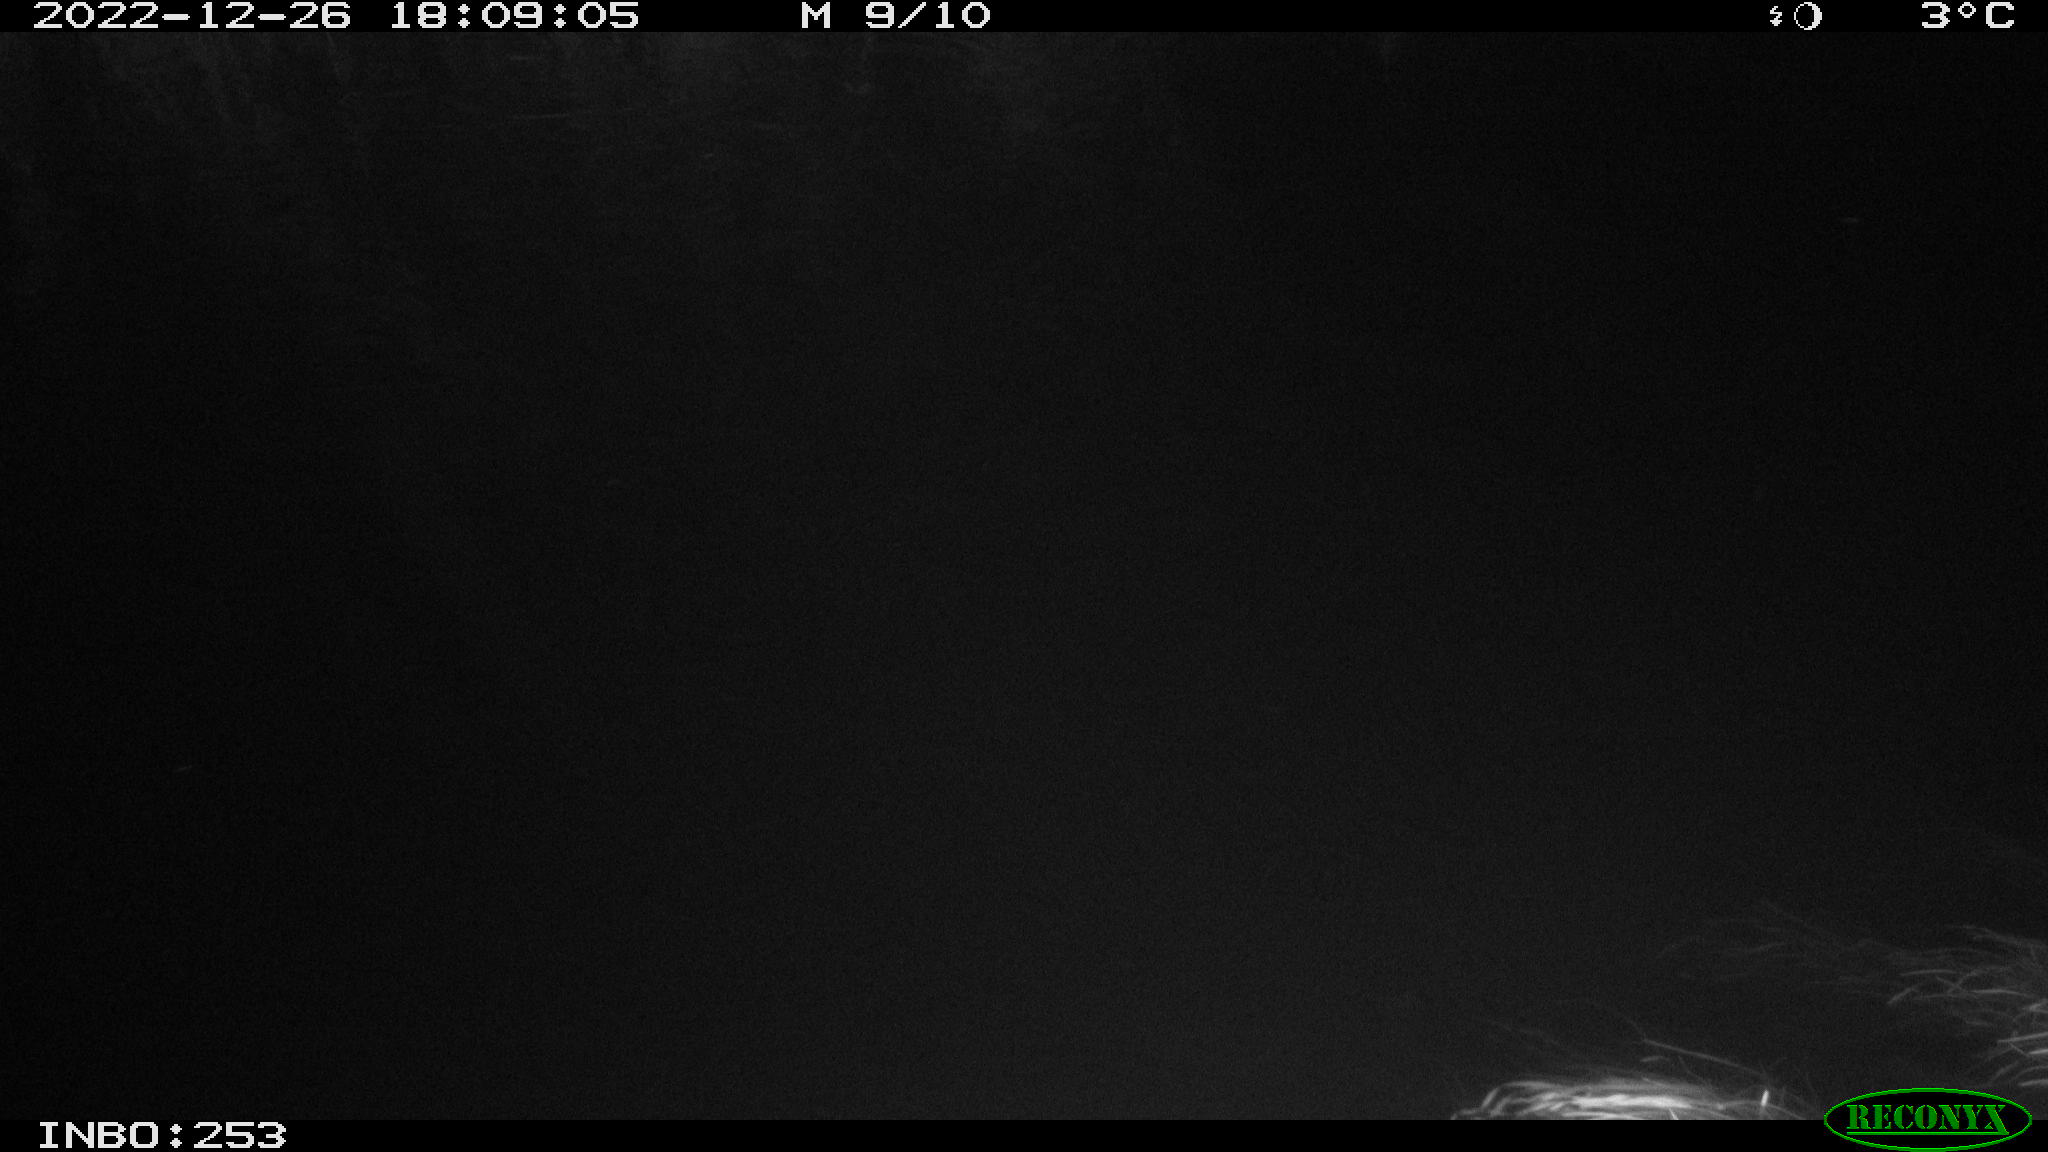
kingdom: Animalia
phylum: Chordata
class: Aves
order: Anseriformes
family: Anatidae
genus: Anas
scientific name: Anas
